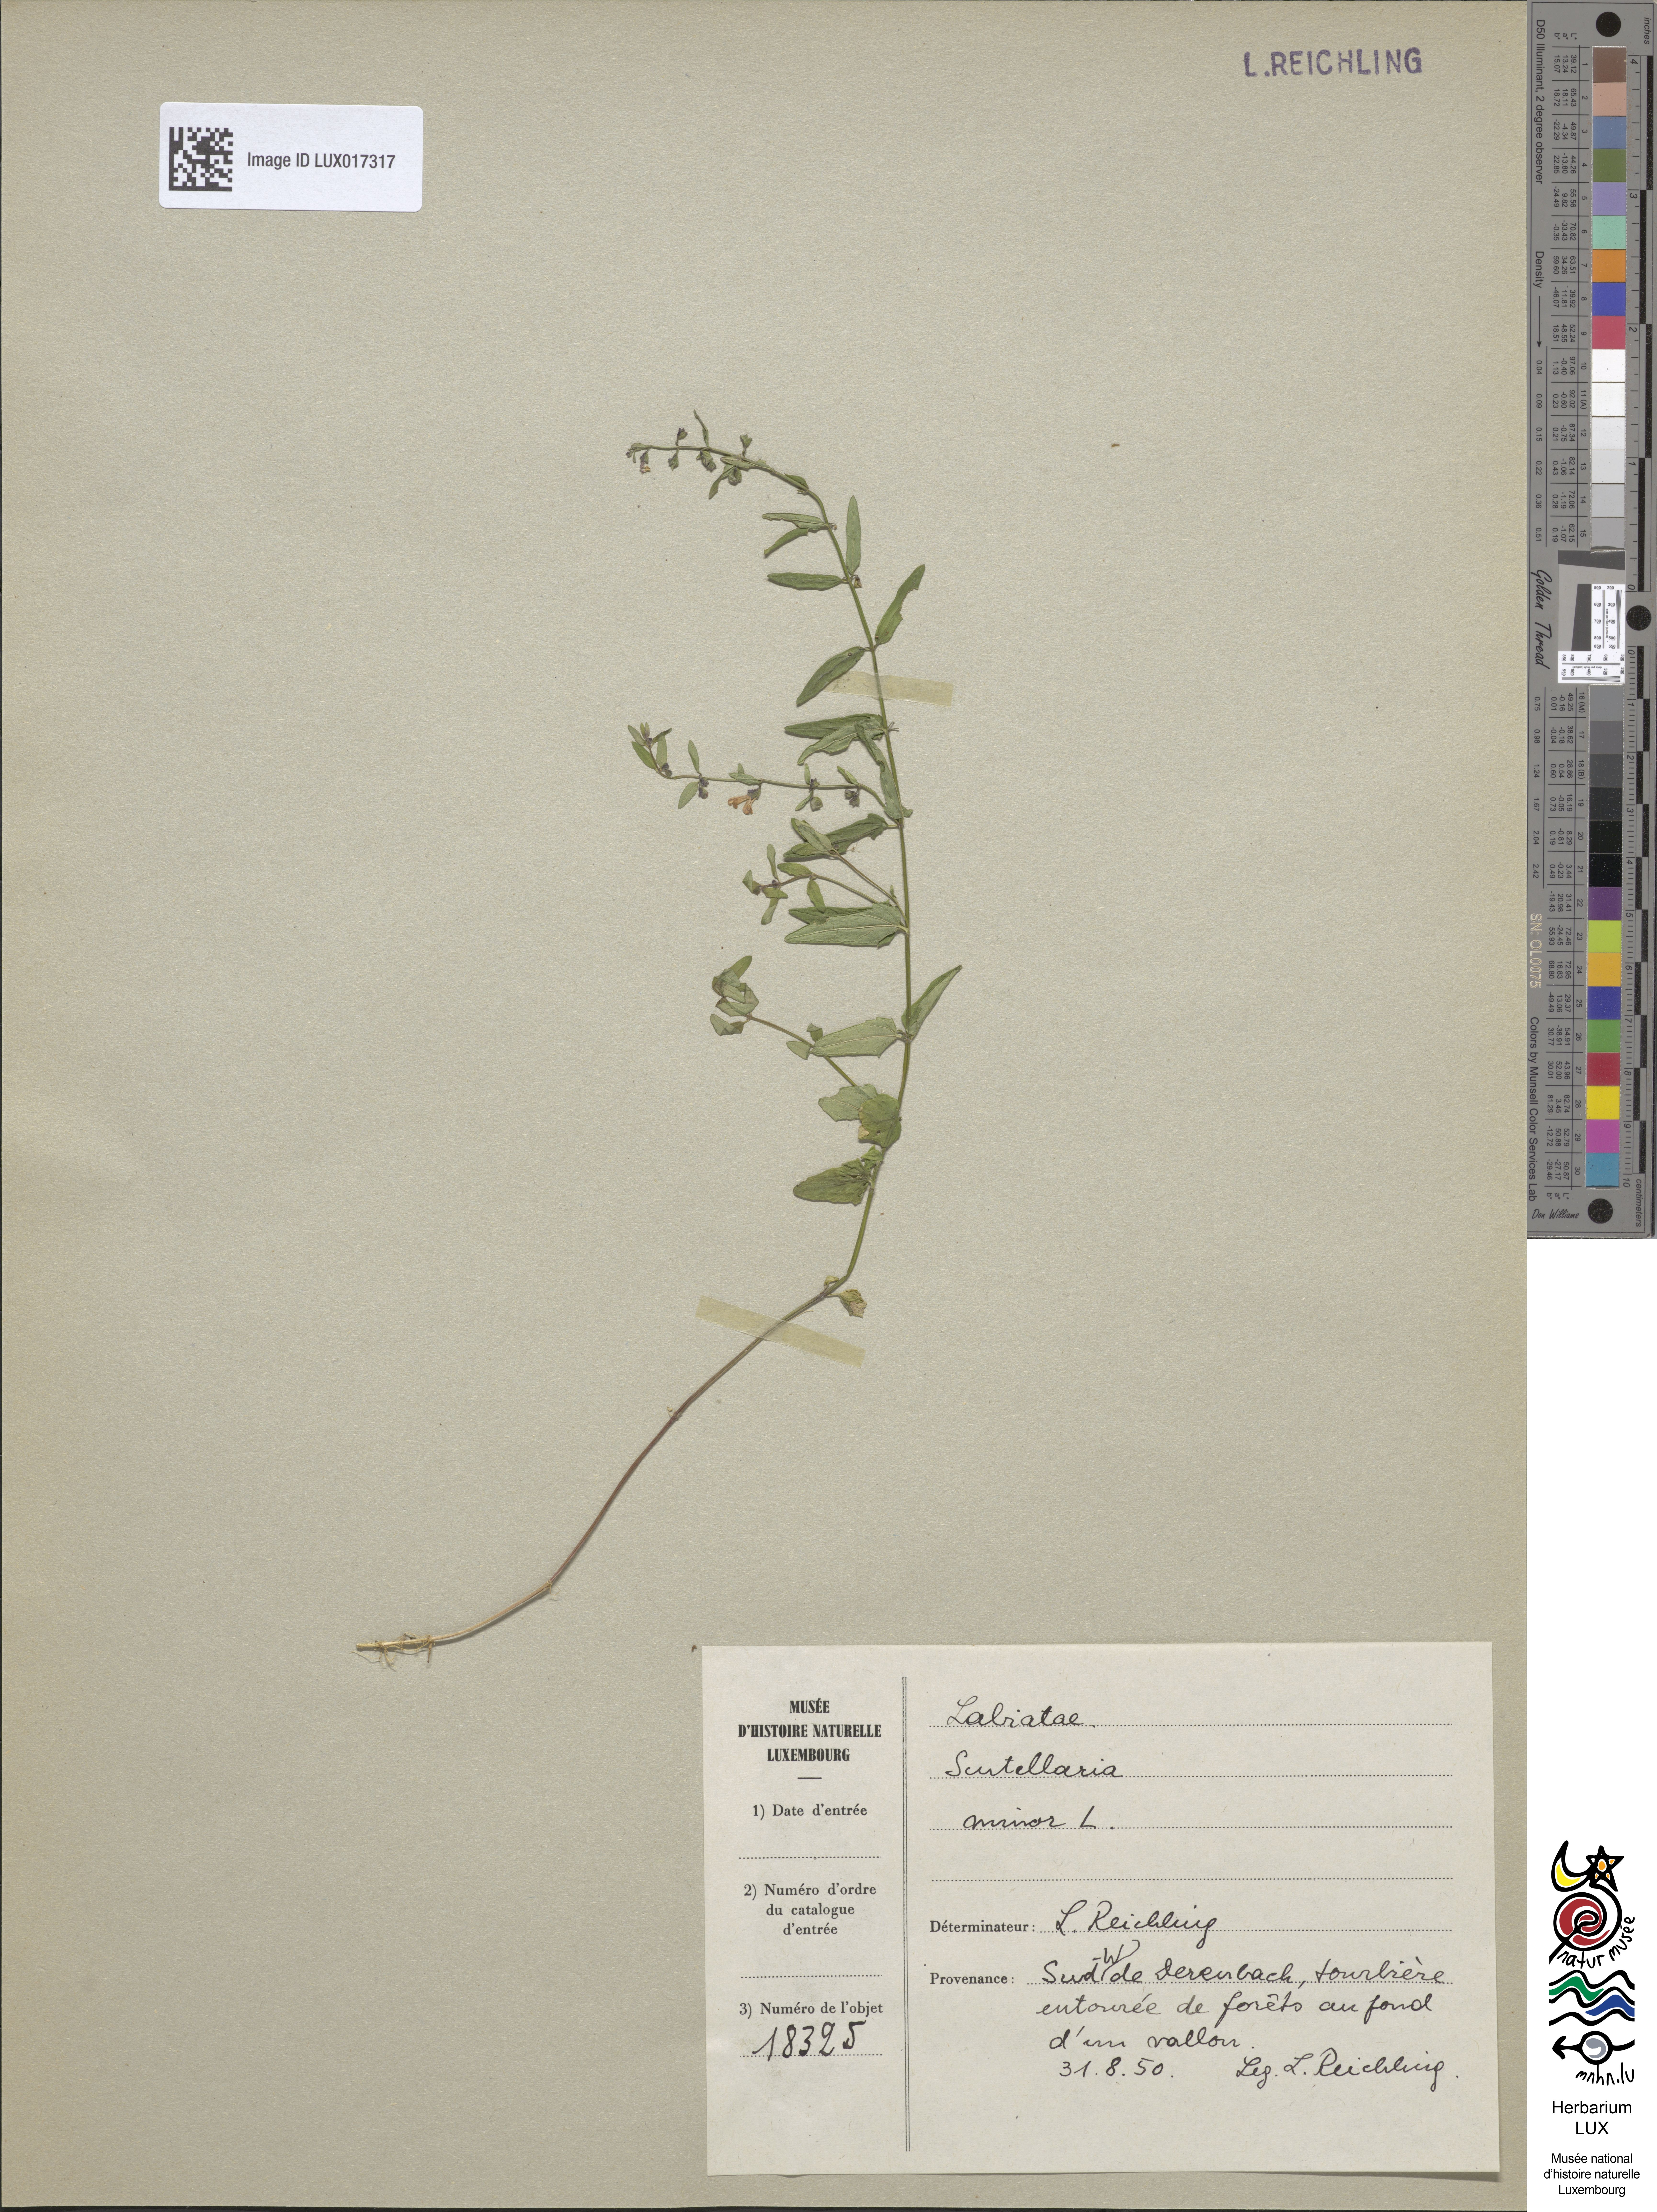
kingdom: Plantae
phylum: Tracheophyta
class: Magnoliopsida
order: Lamiales
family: Lamiaceae
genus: Scutellaria
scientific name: Scutellaria minor
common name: Lesser skullcap
